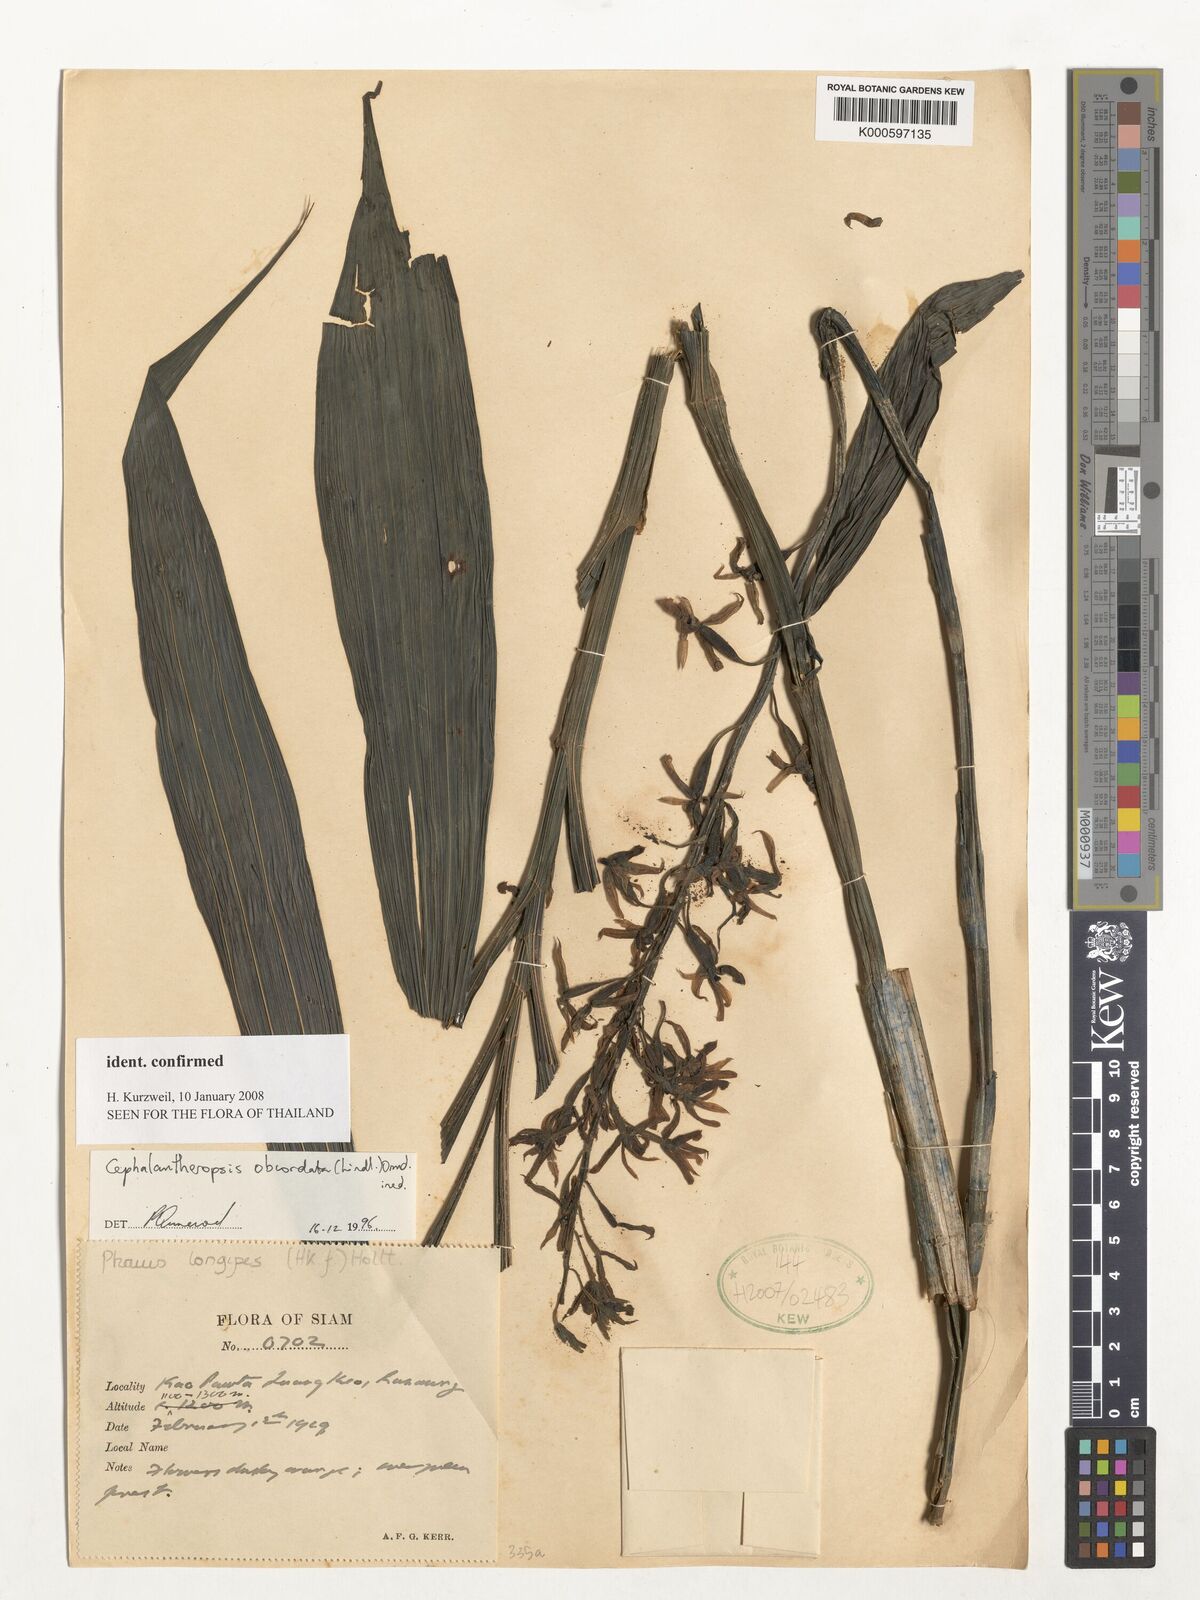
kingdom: Plantae
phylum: Tracheophyta
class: Liliopsida
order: Asparagales
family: Orchidaceae
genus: Calanthe
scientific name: Calanthe obcordata
